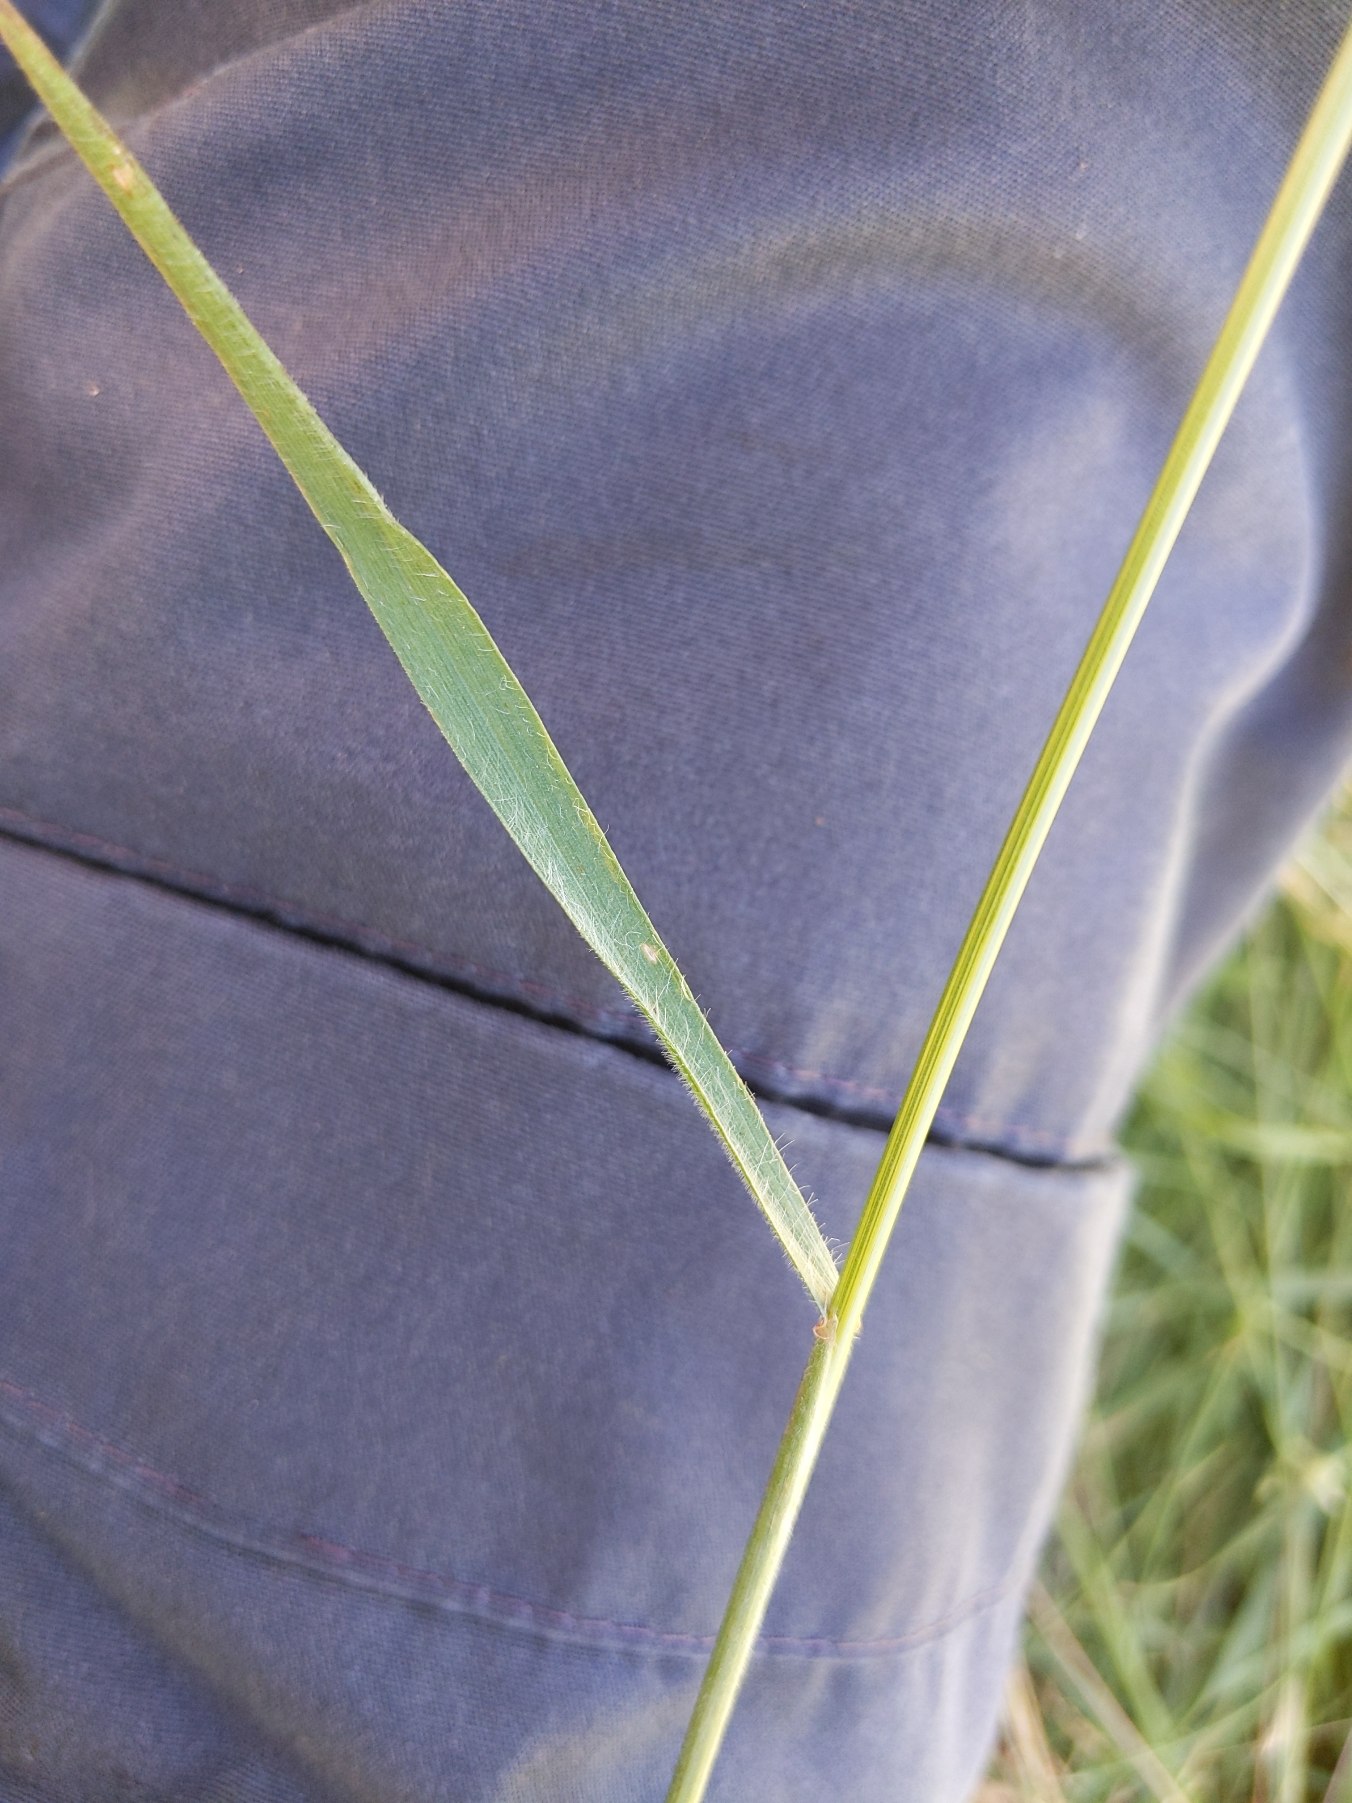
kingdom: Plantae
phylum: Tracheophyta
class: Liliopsida
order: Poales
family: Poaceae
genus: Bromus
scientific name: Bromus arvensis
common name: Ager-hejre
